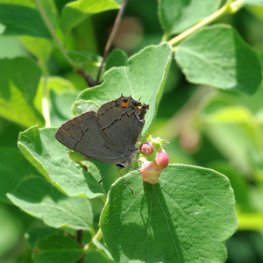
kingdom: Animalia
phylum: Arthropoda
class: Insecta
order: Lepidoptera
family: Lycaenidae
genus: Strymon
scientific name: Strymon melinus
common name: Gray Hairstreak
